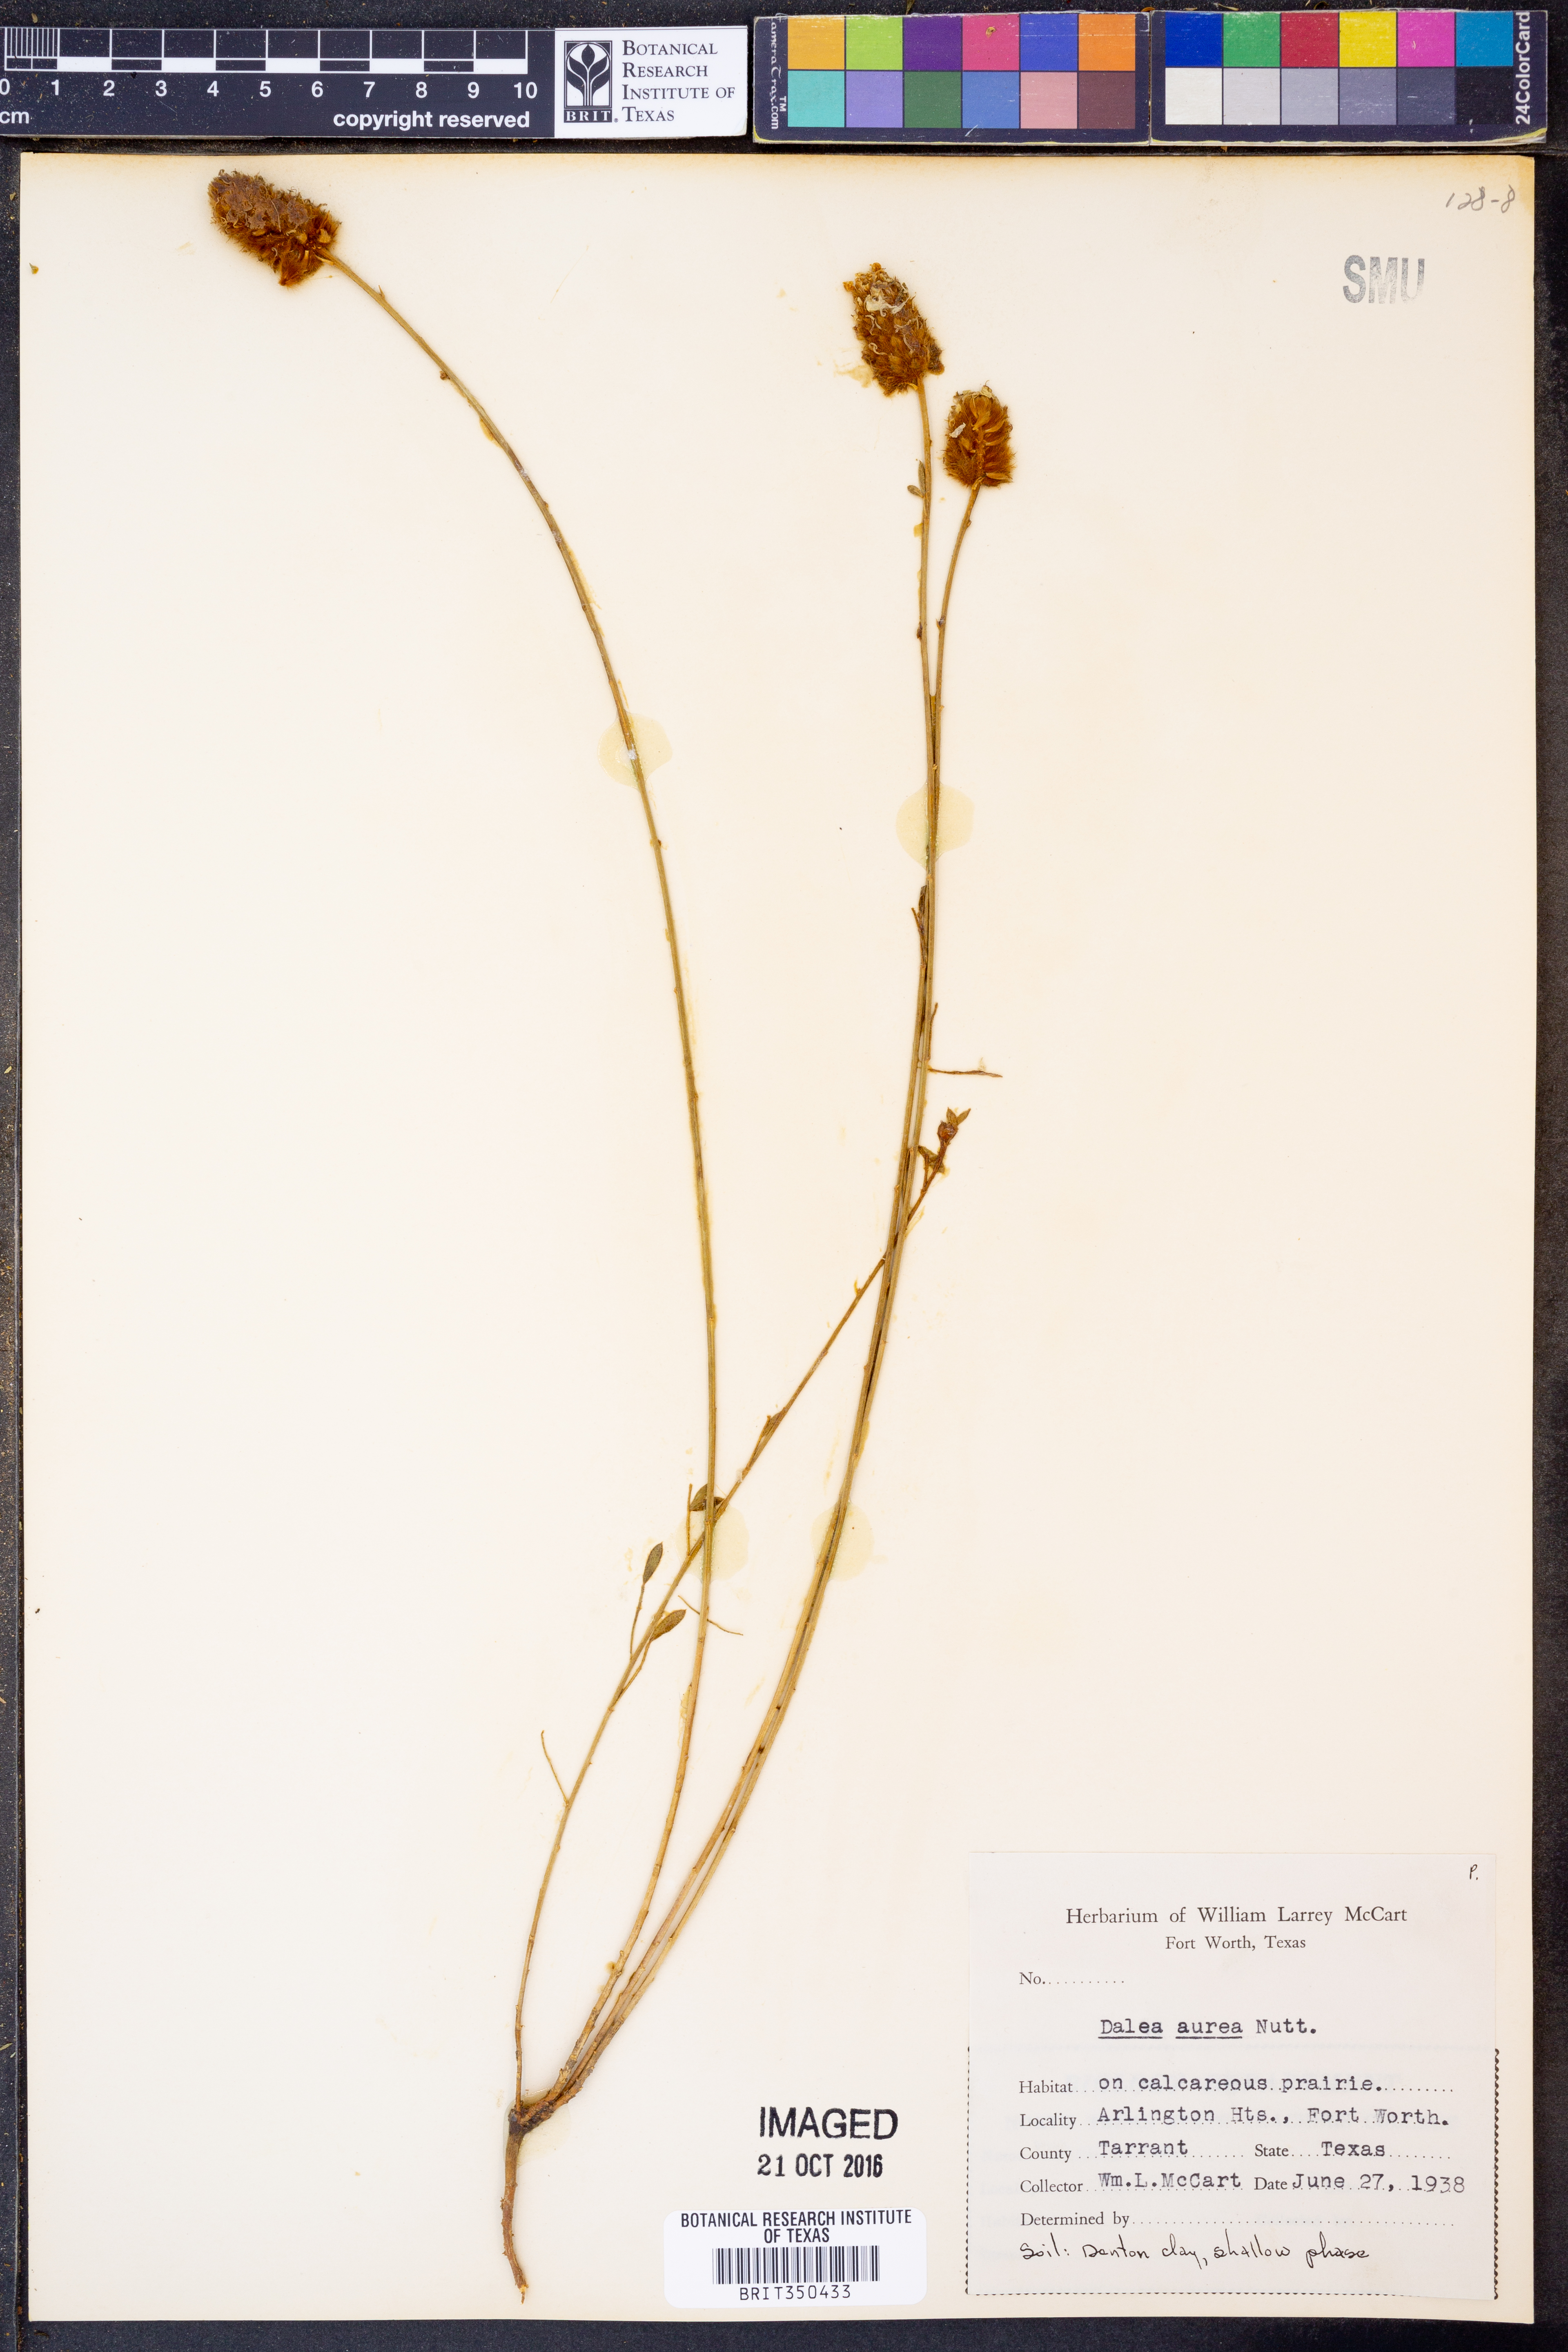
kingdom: Plantae
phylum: Tracheophyta
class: Magnoliopsida
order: Fabales
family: Fabaceae
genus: Dalea
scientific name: Dalea aurea
